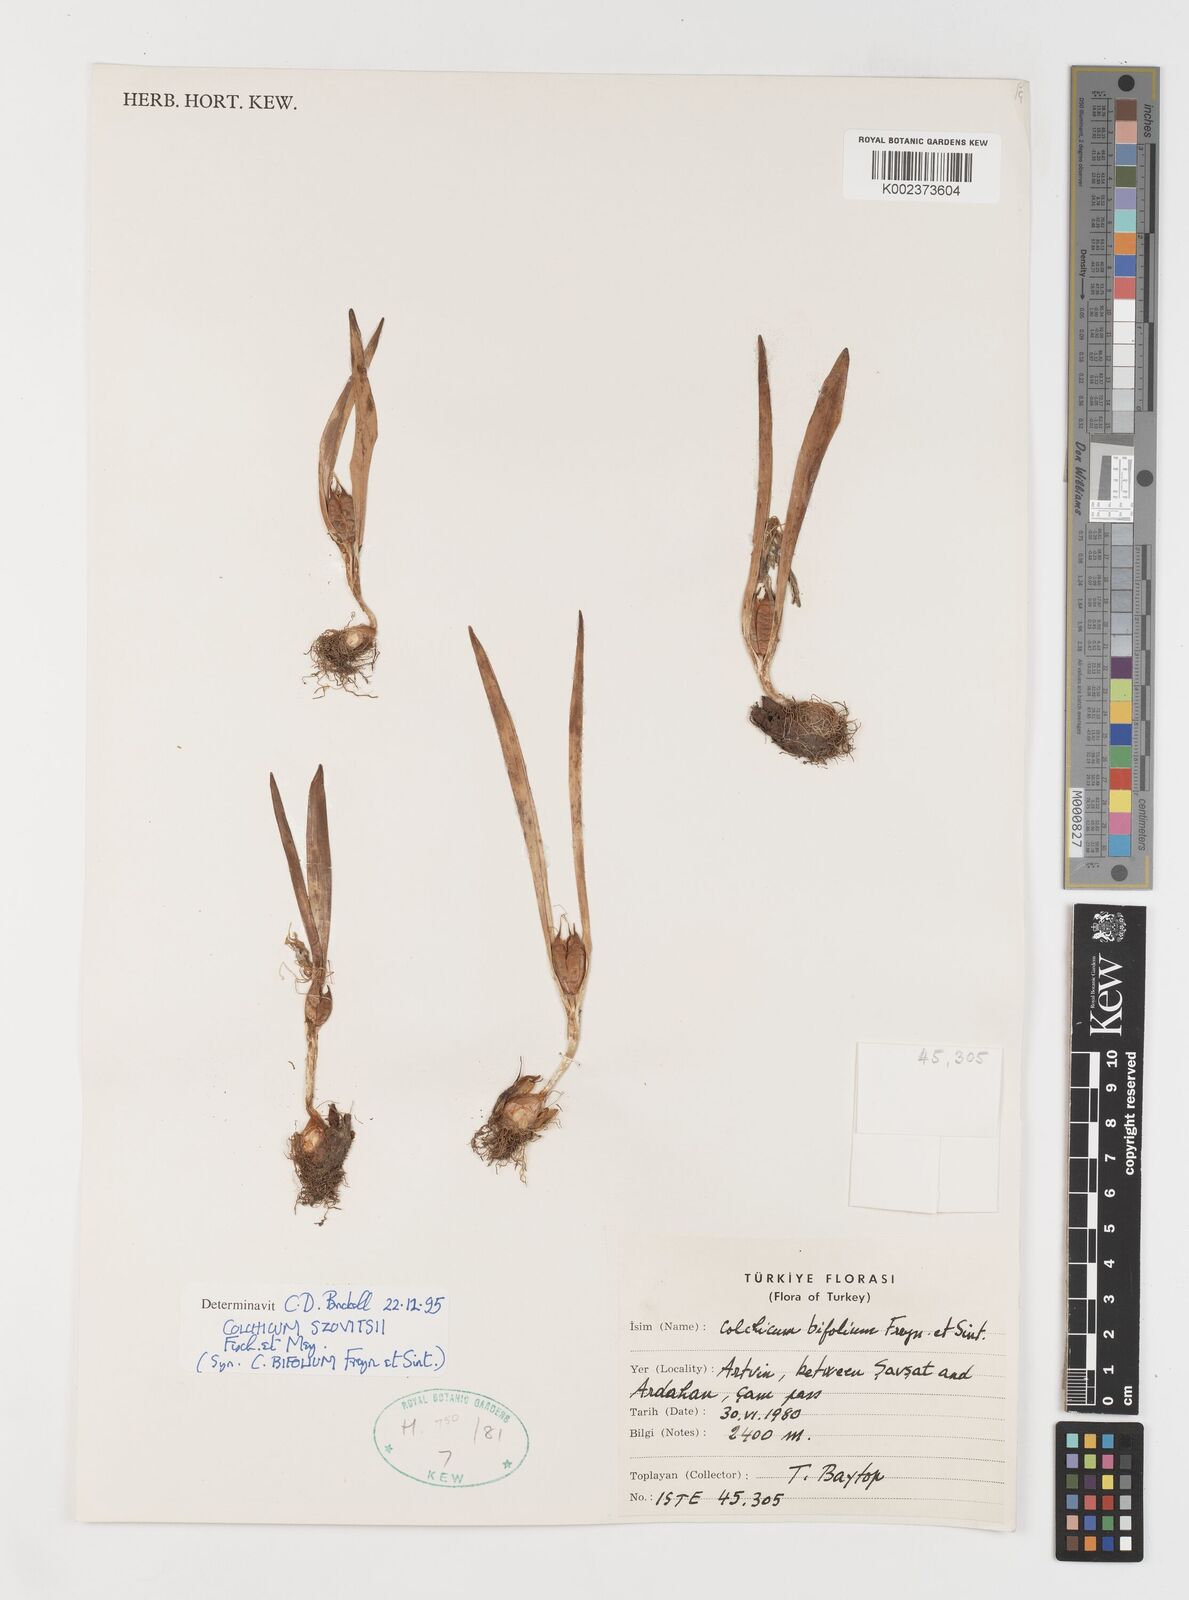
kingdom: Plantae
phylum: Tracheophyta
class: Liliopsida
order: Liliales
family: Colchicaceae
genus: Colchicum
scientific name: Colchicum szovitsii
